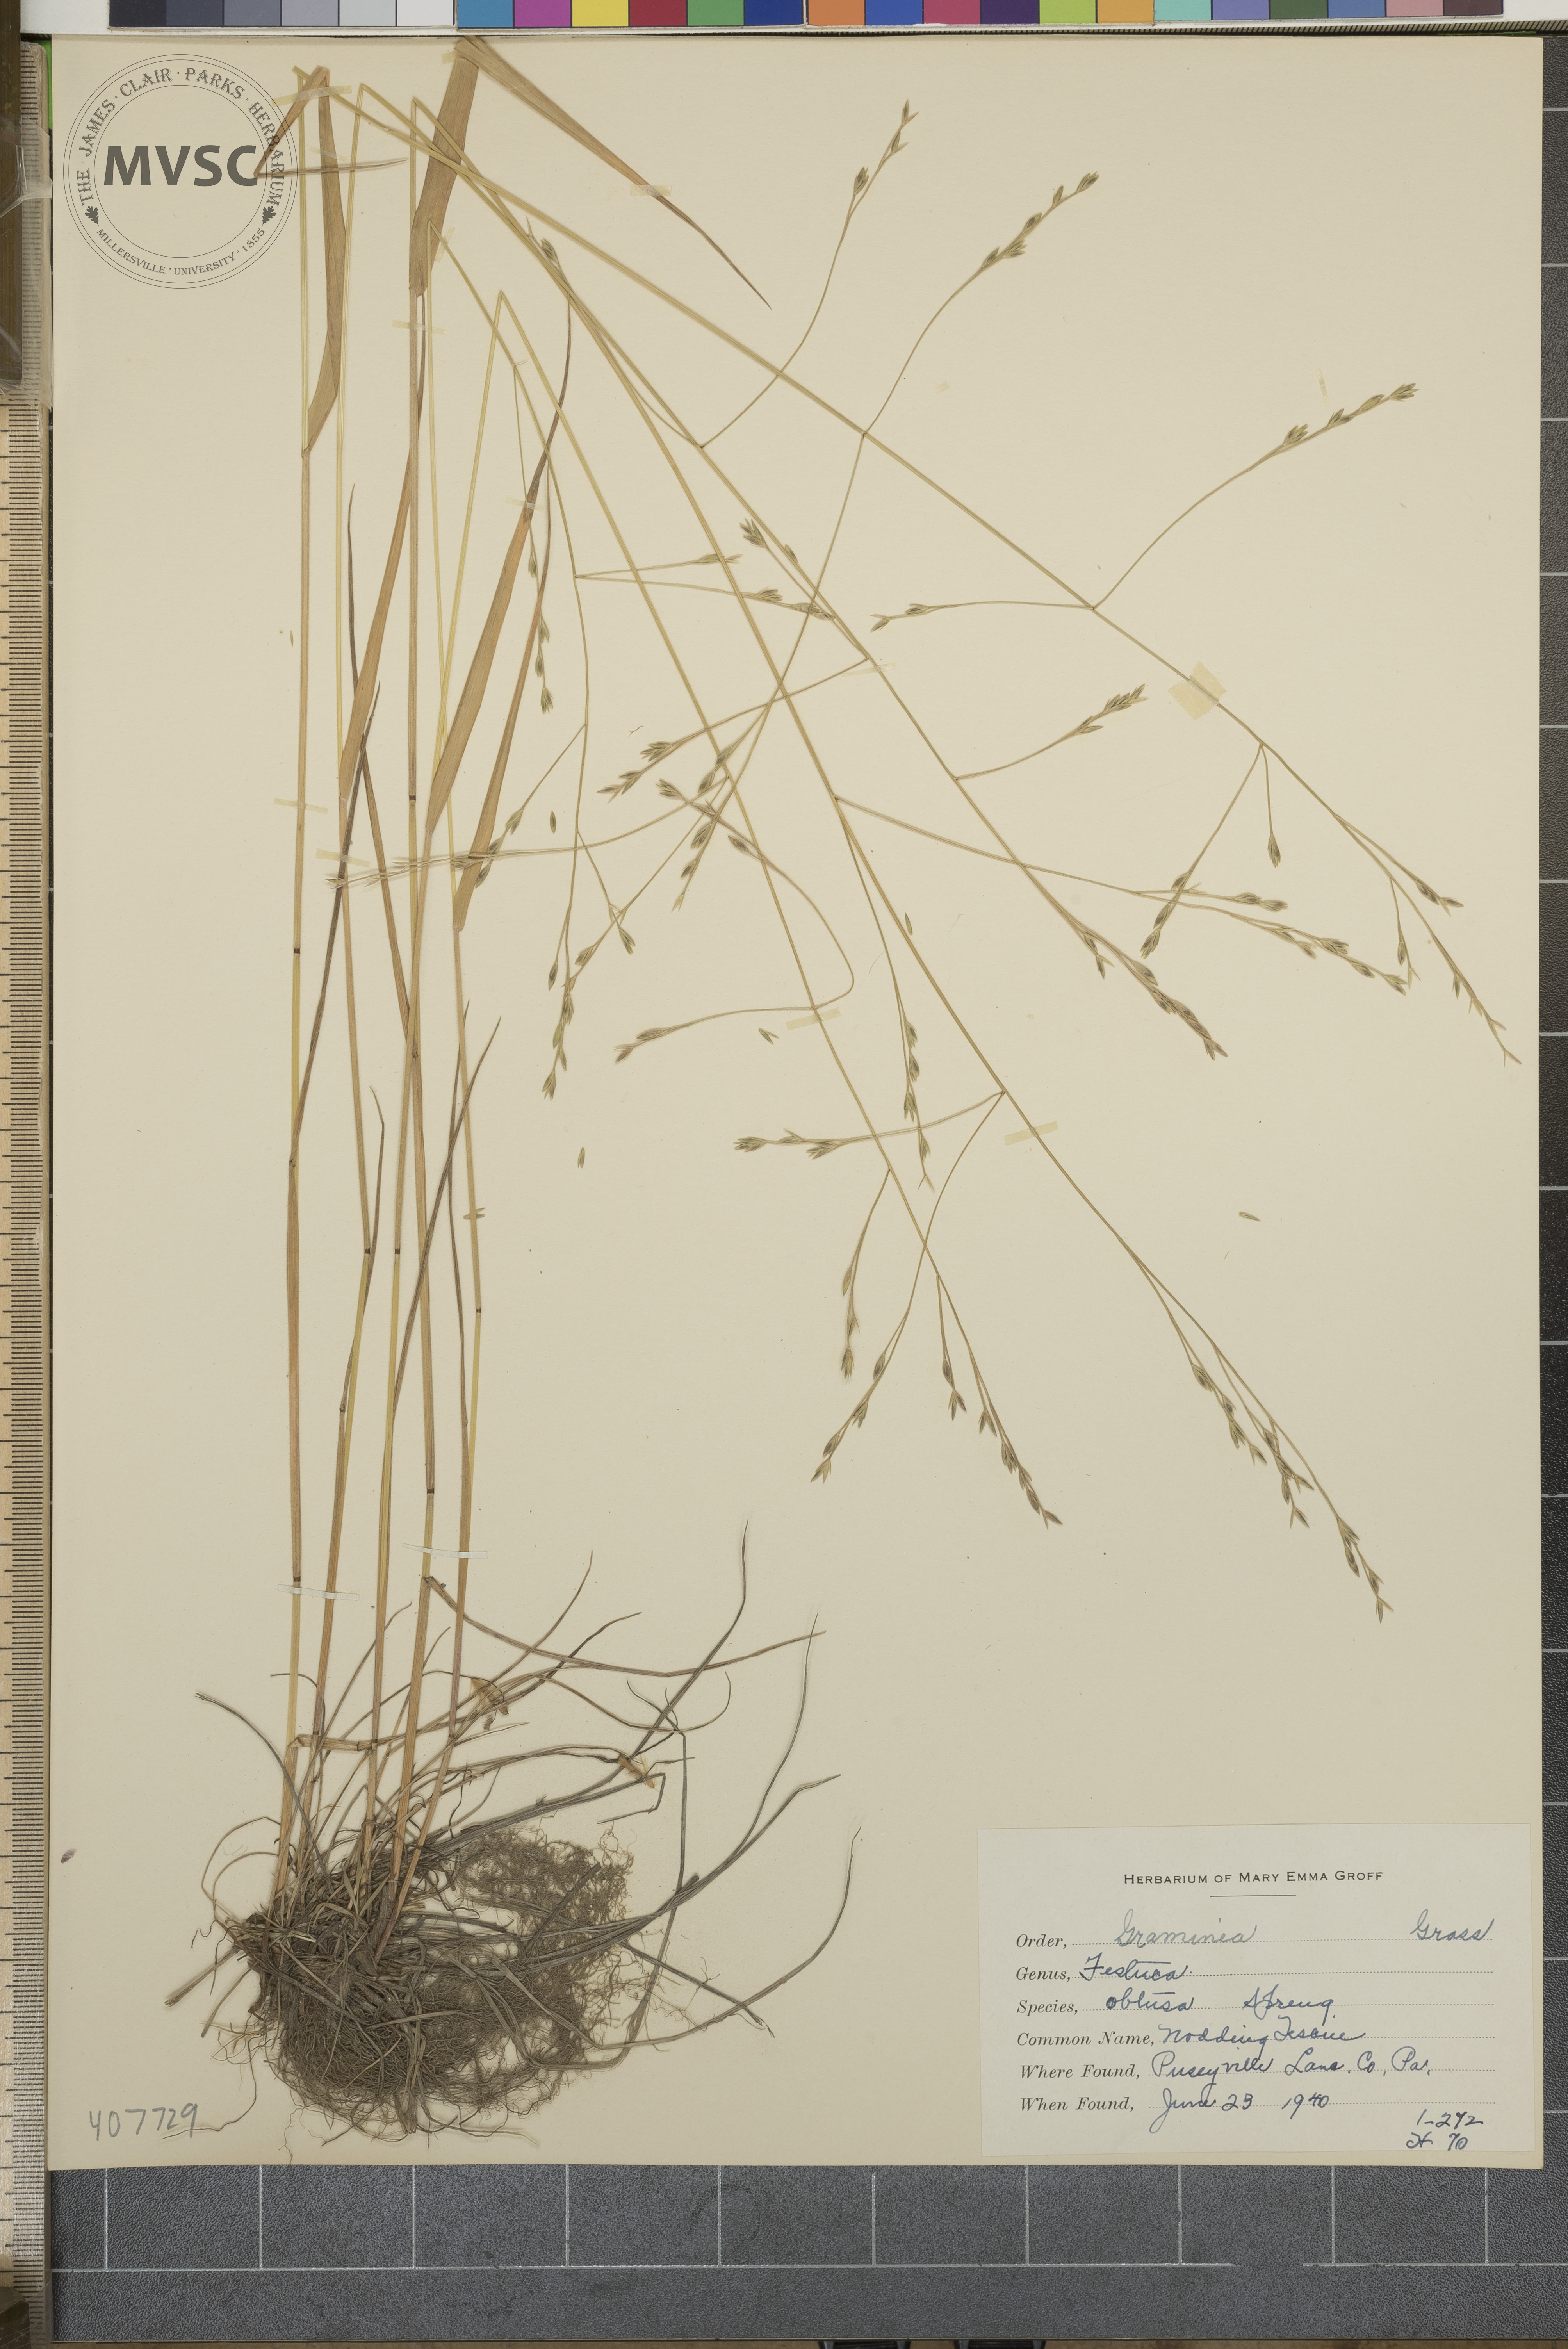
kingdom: Plantae
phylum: Tracheophyta
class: Liliopsida
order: Poales
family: Poaceae
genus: Festuca
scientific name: Festuca subverticillata
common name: Nodding fescue
